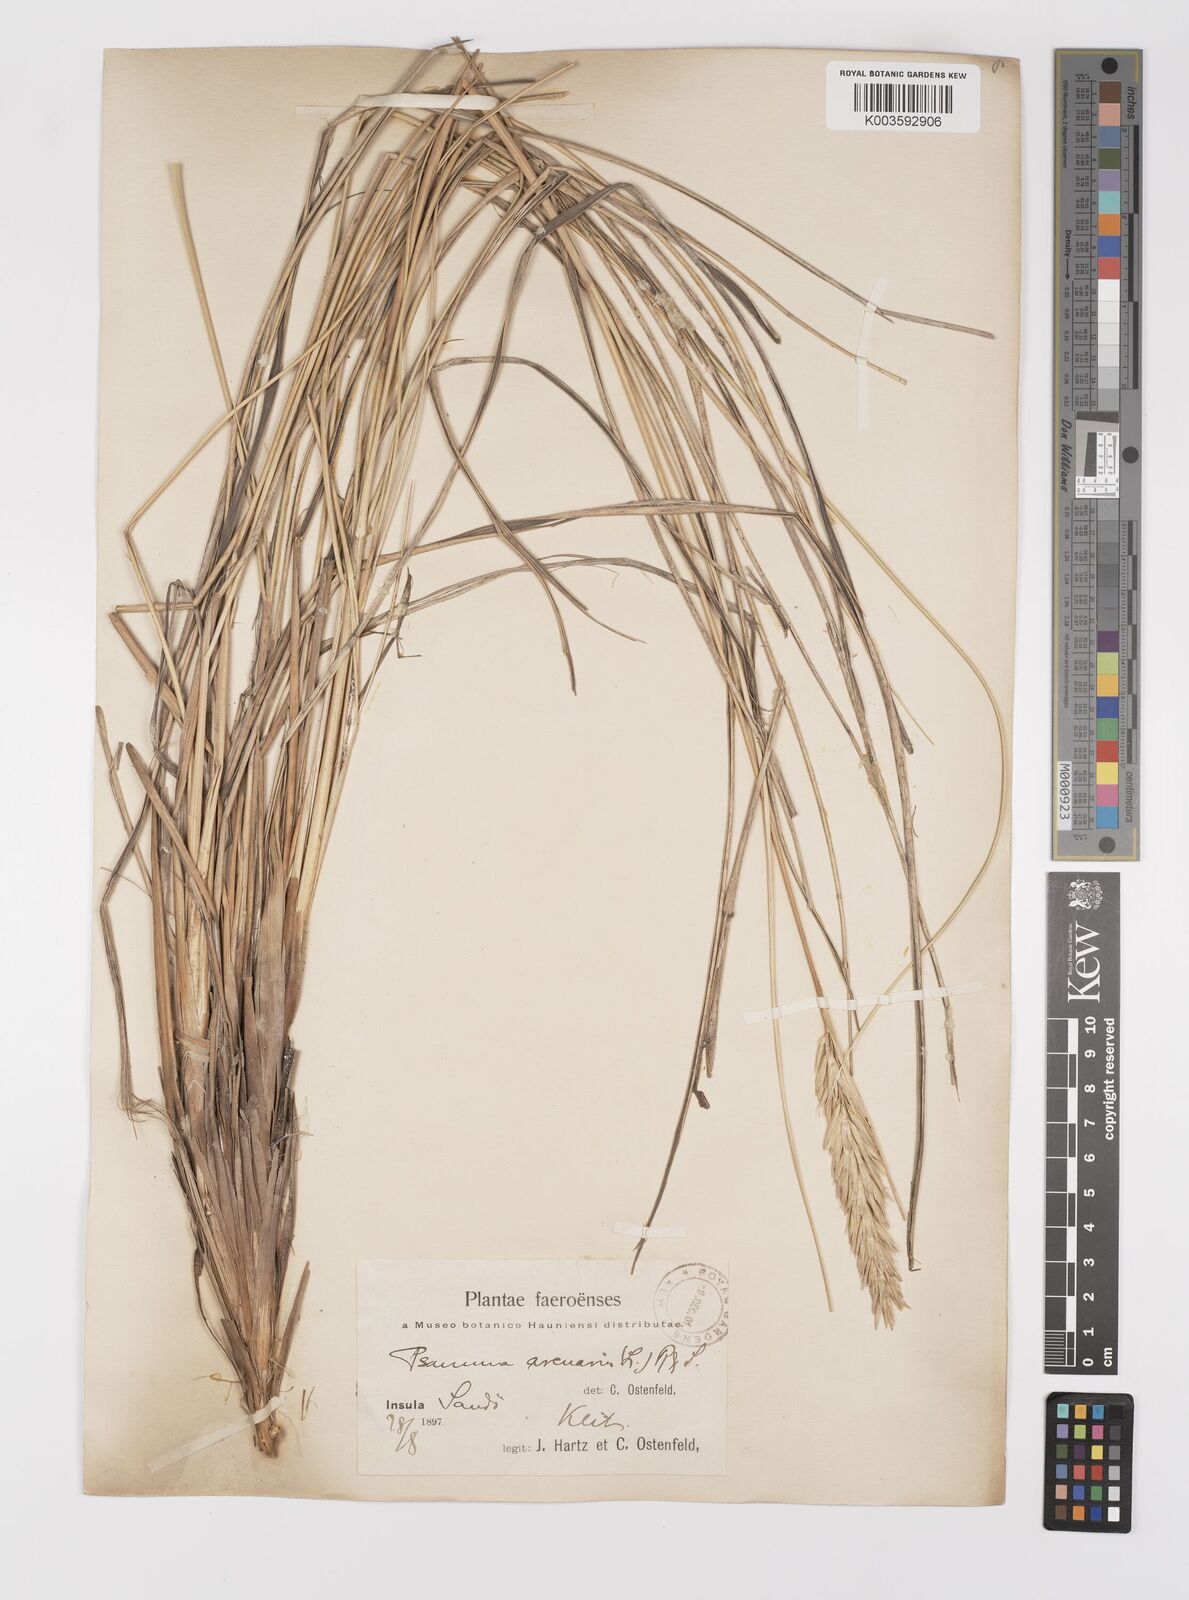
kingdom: Plantae
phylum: Tracheophyta
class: Liliopsida
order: Poales
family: Poaceae
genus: Calamagrostis
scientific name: Calamagrostis arenaria
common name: European beachgrass
